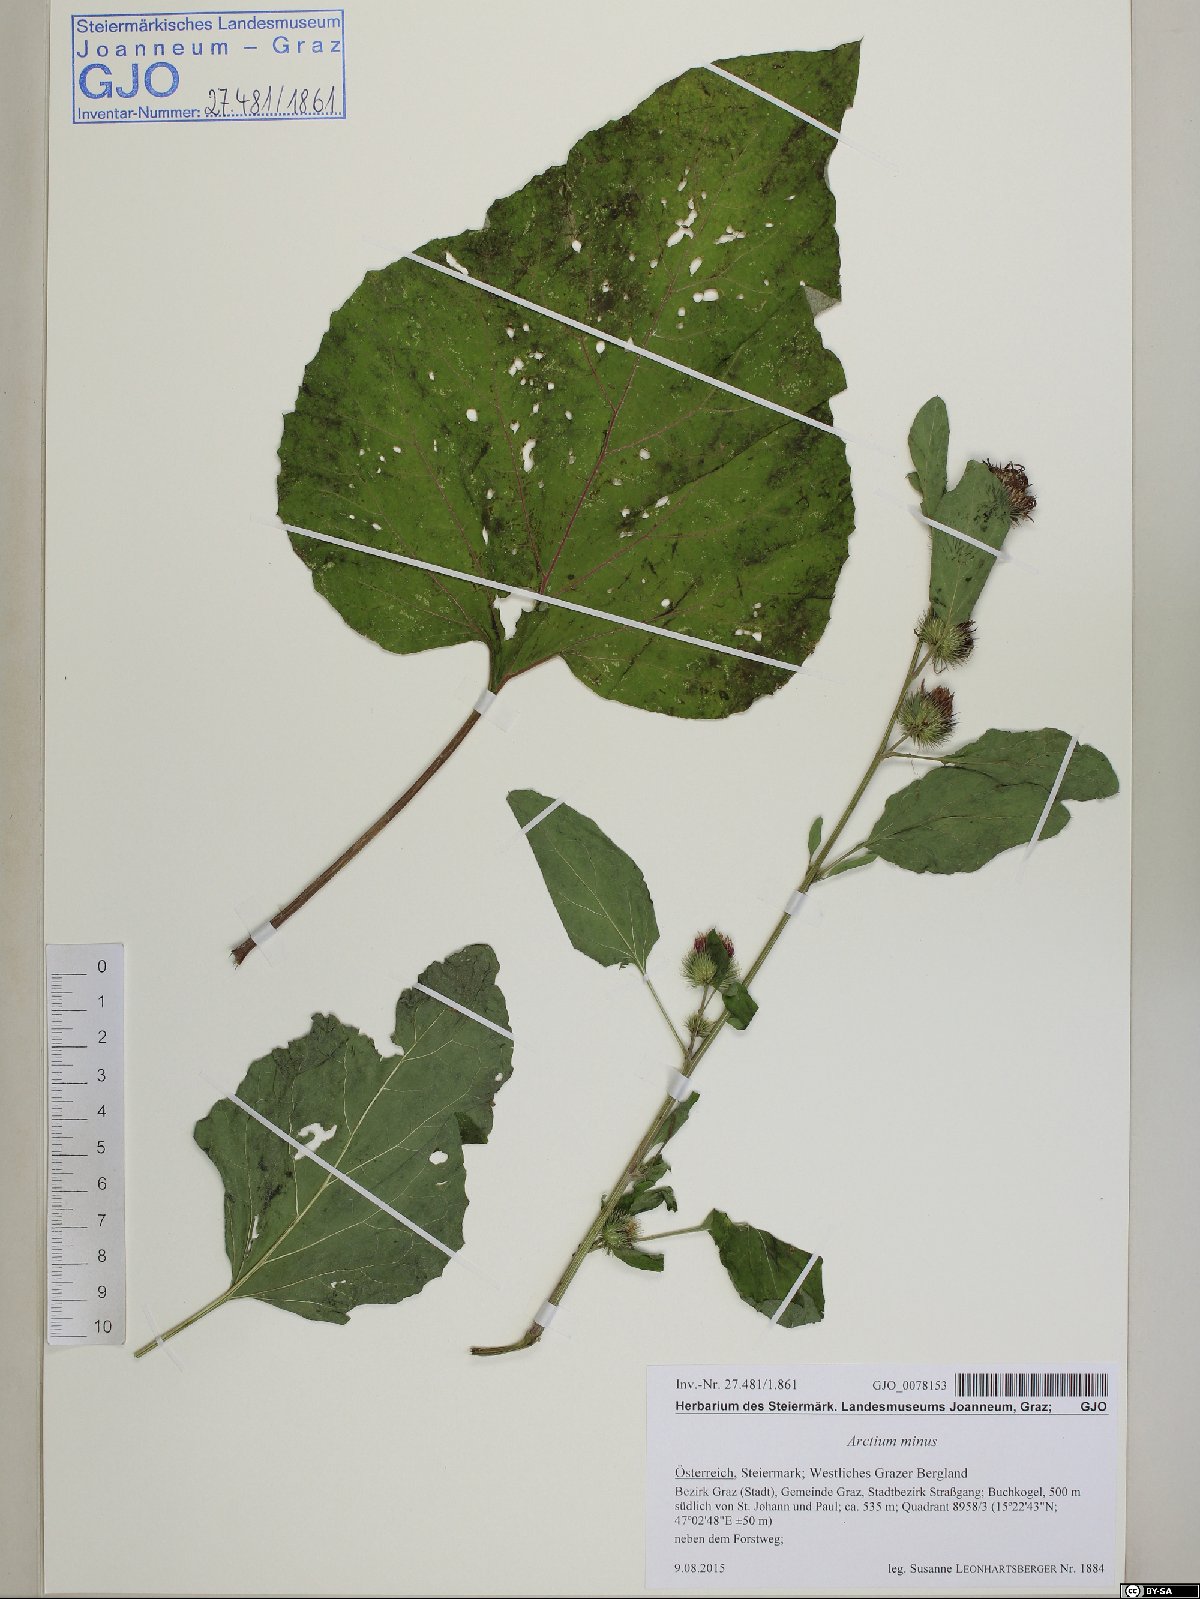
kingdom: Plantae
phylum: Tracheophyta
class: Magnoliopsida
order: Asterales
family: Asteraceae
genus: Arctium
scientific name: Arctium minus
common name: Lesser burdock
